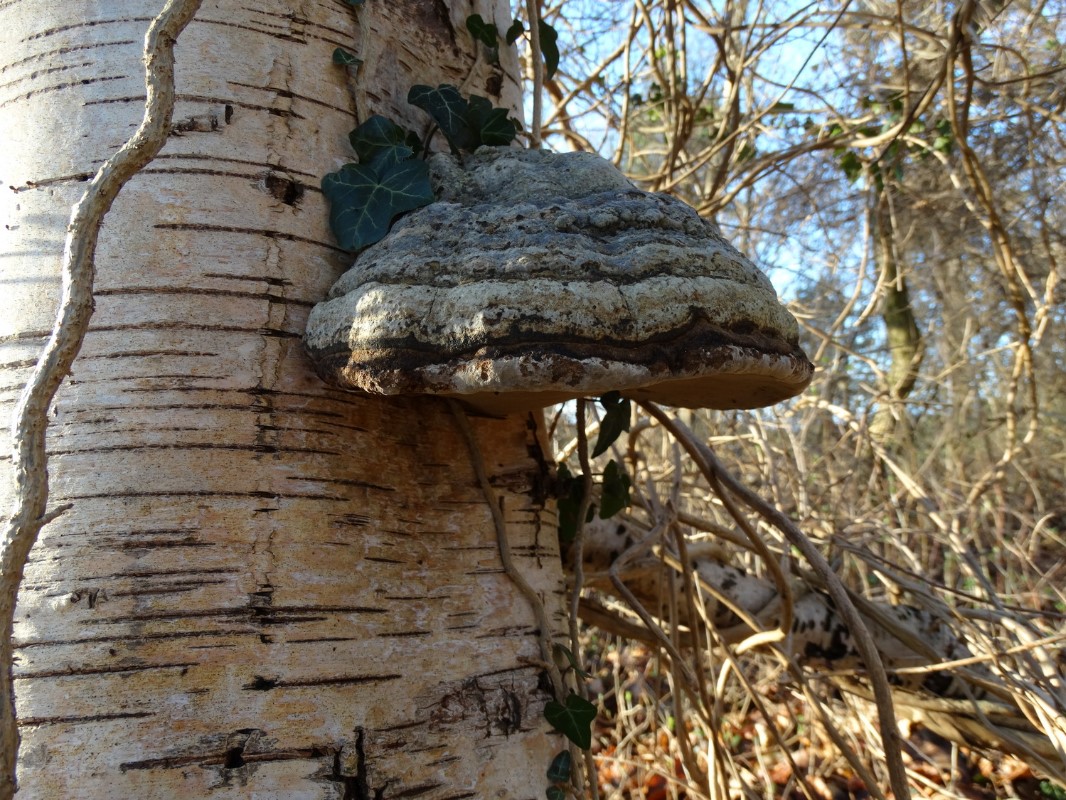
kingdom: Fungi
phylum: Basidiomycota
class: Agaricomycetes
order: Polyporales
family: Polyporaceae
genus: Fomes
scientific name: Fomes fomentarius
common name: tøndersvamp
